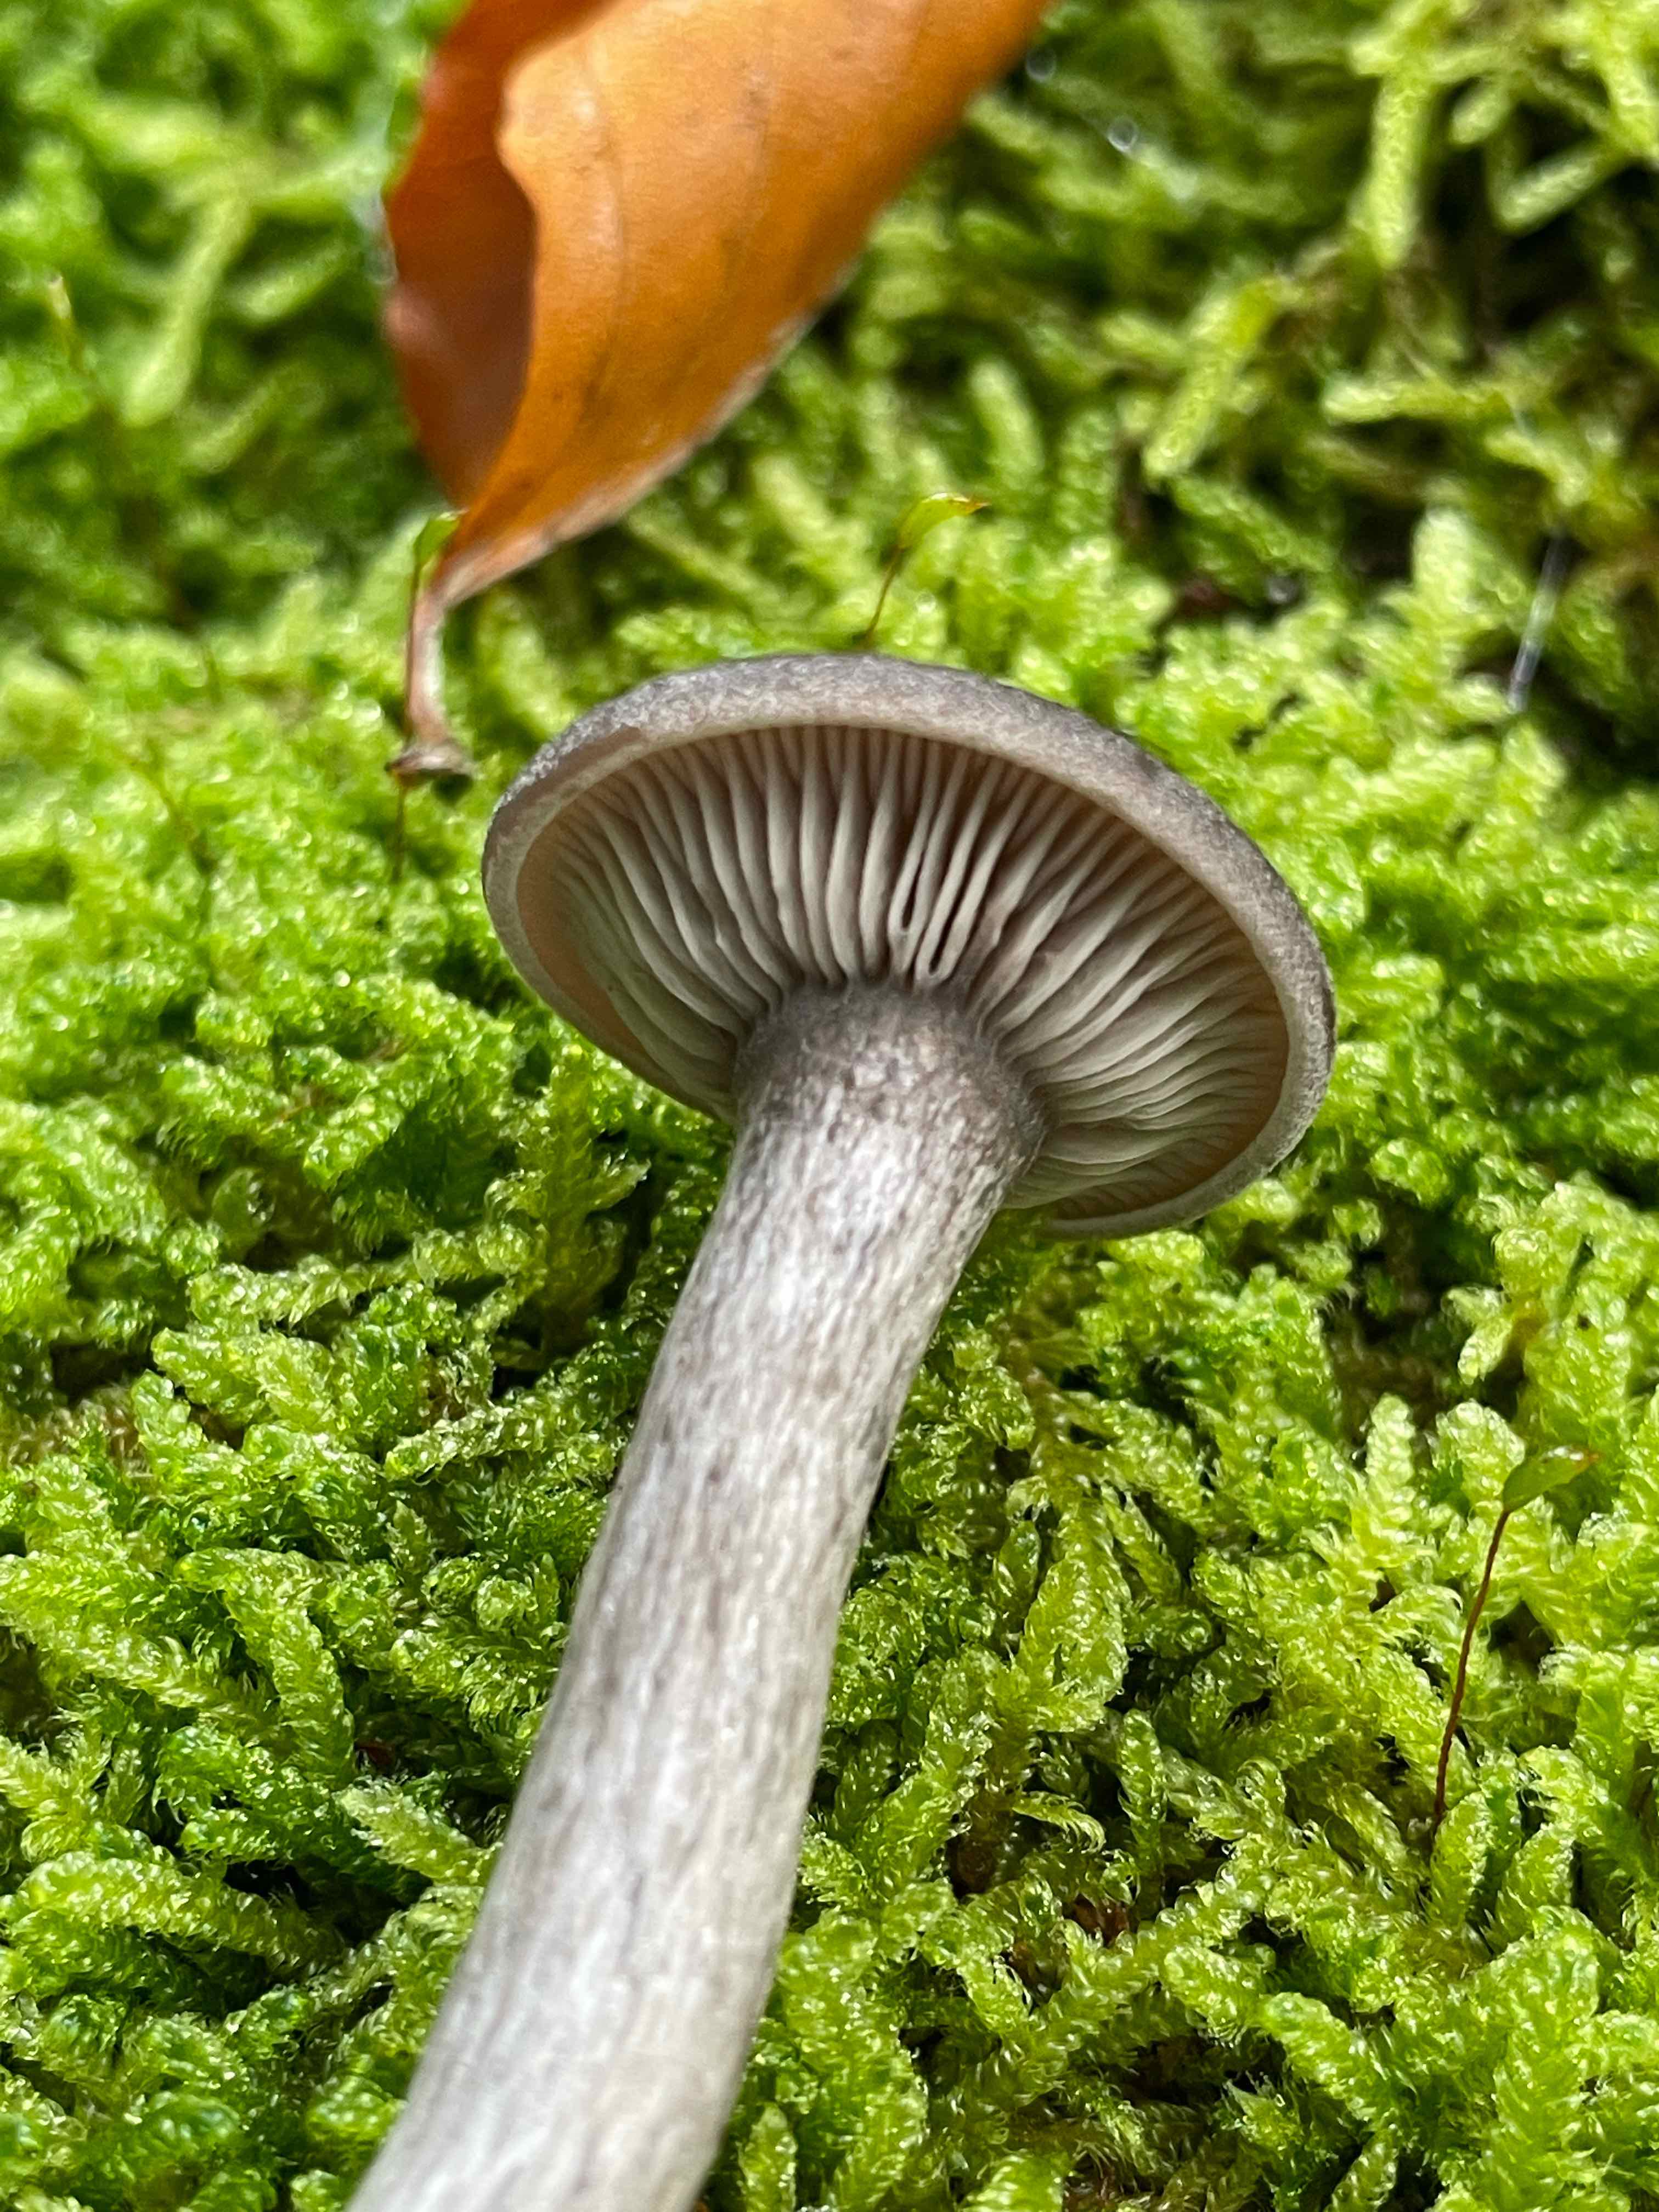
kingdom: Fungi
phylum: Basidiomycota
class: Agaricomycetes
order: Agaricales
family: Pseudoclitocybaceae
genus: Pseudoclitocybe
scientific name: Pseudoclitocybe cyathiformis
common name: almindelig bægertragthat
